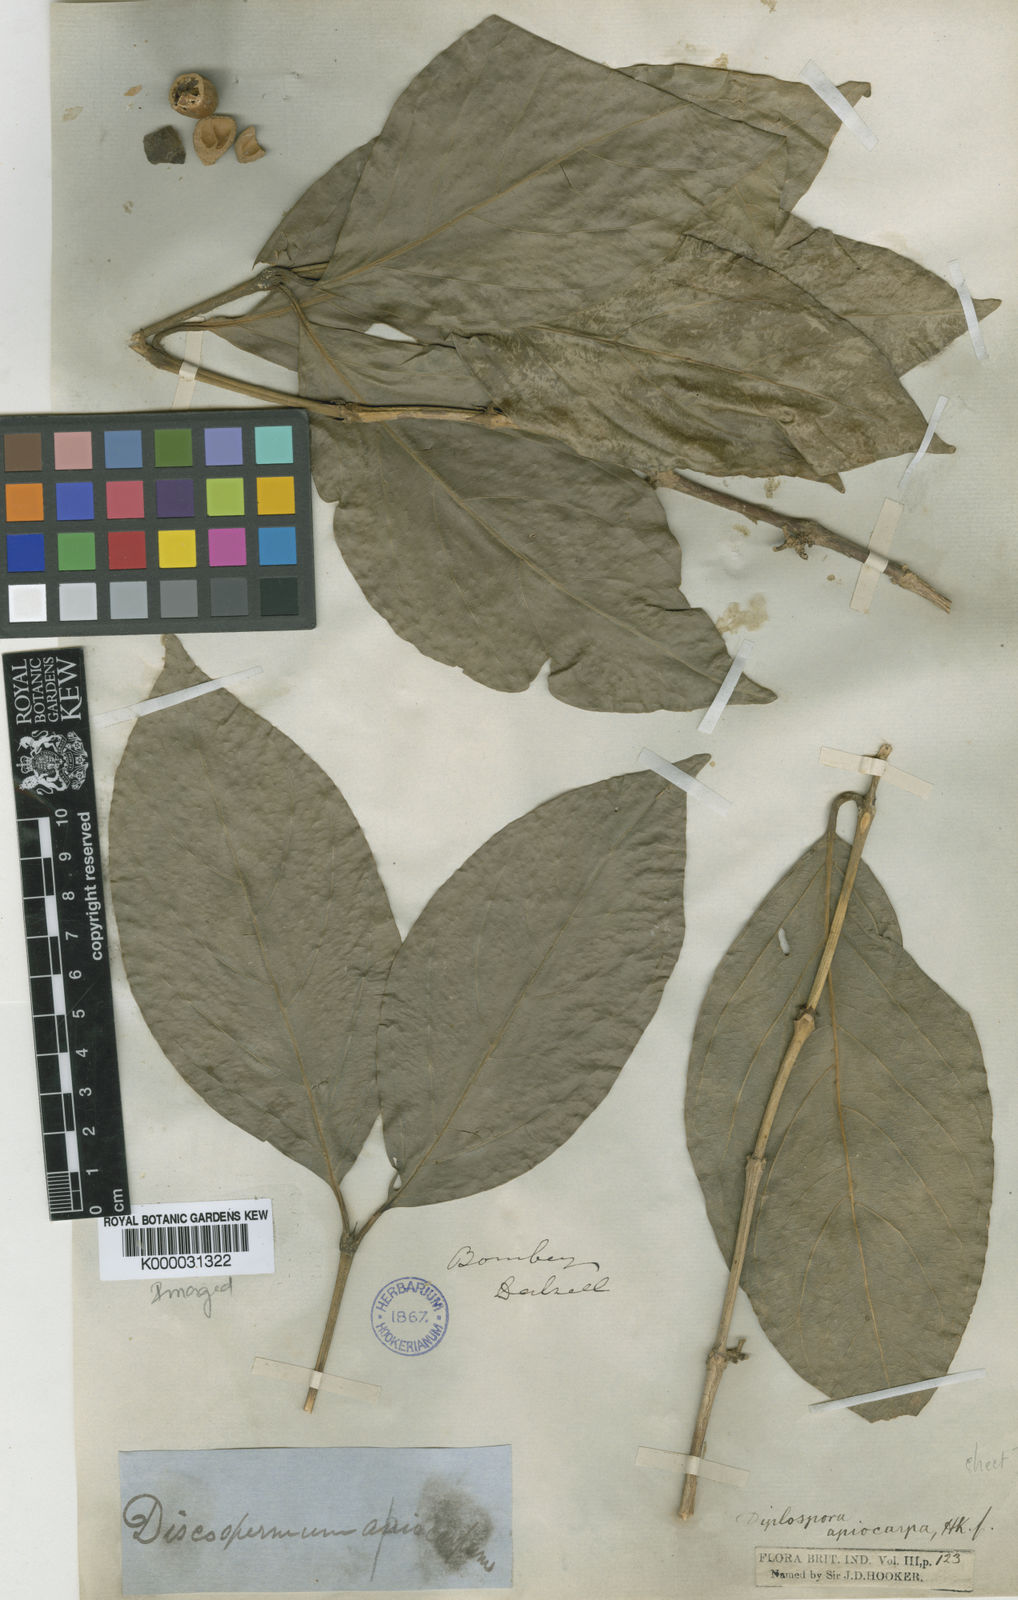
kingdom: Plantae
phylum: Tracheophyta
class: Magnoliopsida
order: Gentianales
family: Rubiaceae
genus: Discospermum
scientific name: Discospermum apiocarpum
